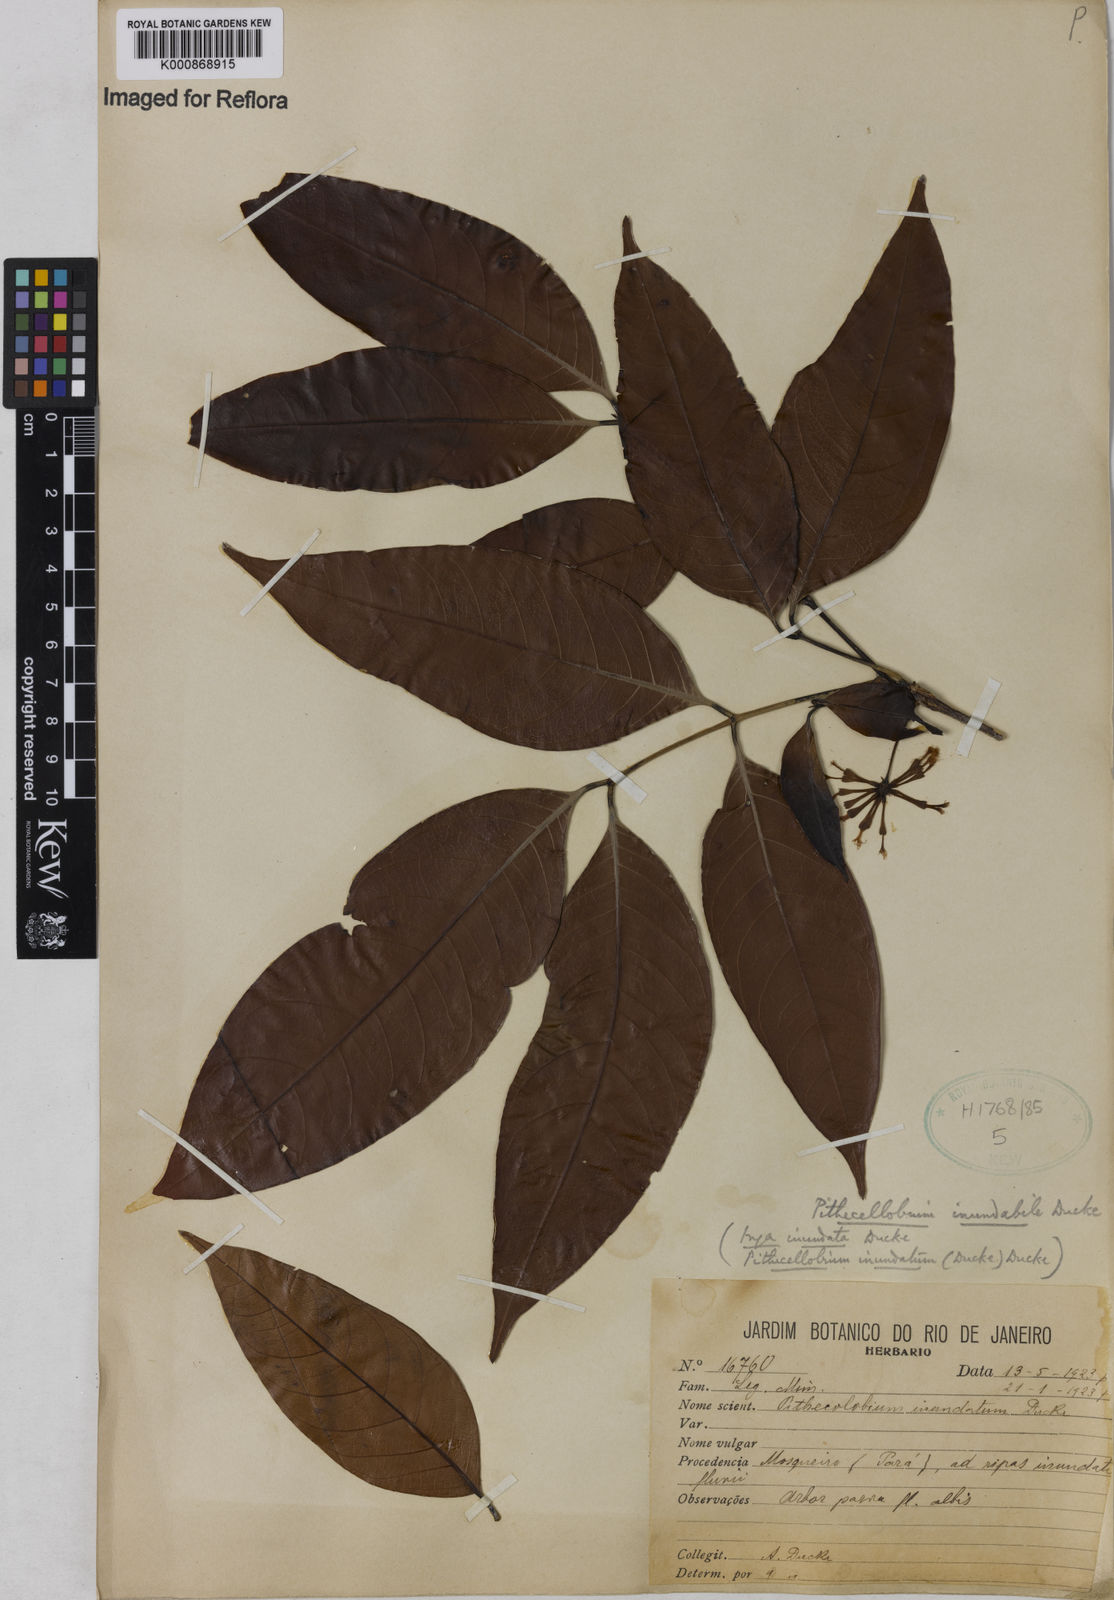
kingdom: Plantae
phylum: Tracheophyta
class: Magnoliopsida
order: Fabales
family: Fabaceae
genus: Zygia
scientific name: Zygia
